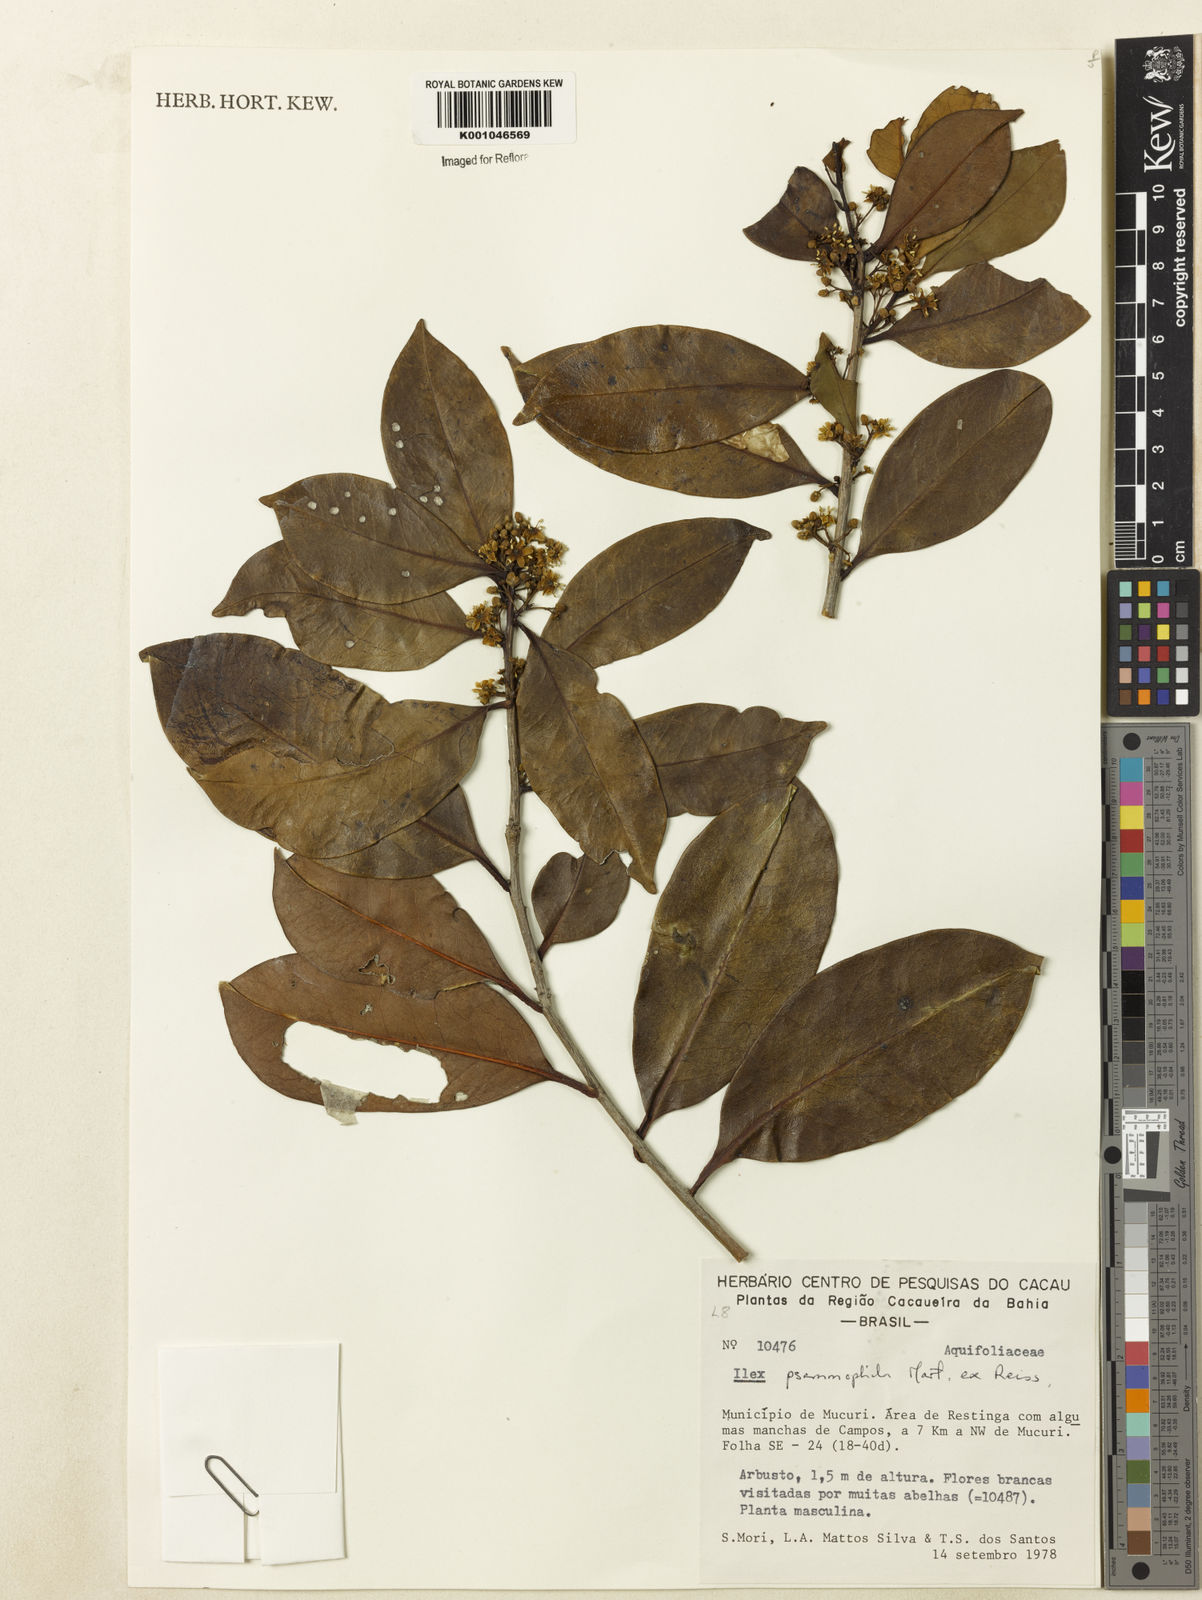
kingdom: Plantae
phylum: Tracheophyta
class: Magnoliopsida
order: Aquifoliales
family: Aquifoliaceae
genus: Ilex
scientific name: Ilex psammophila
